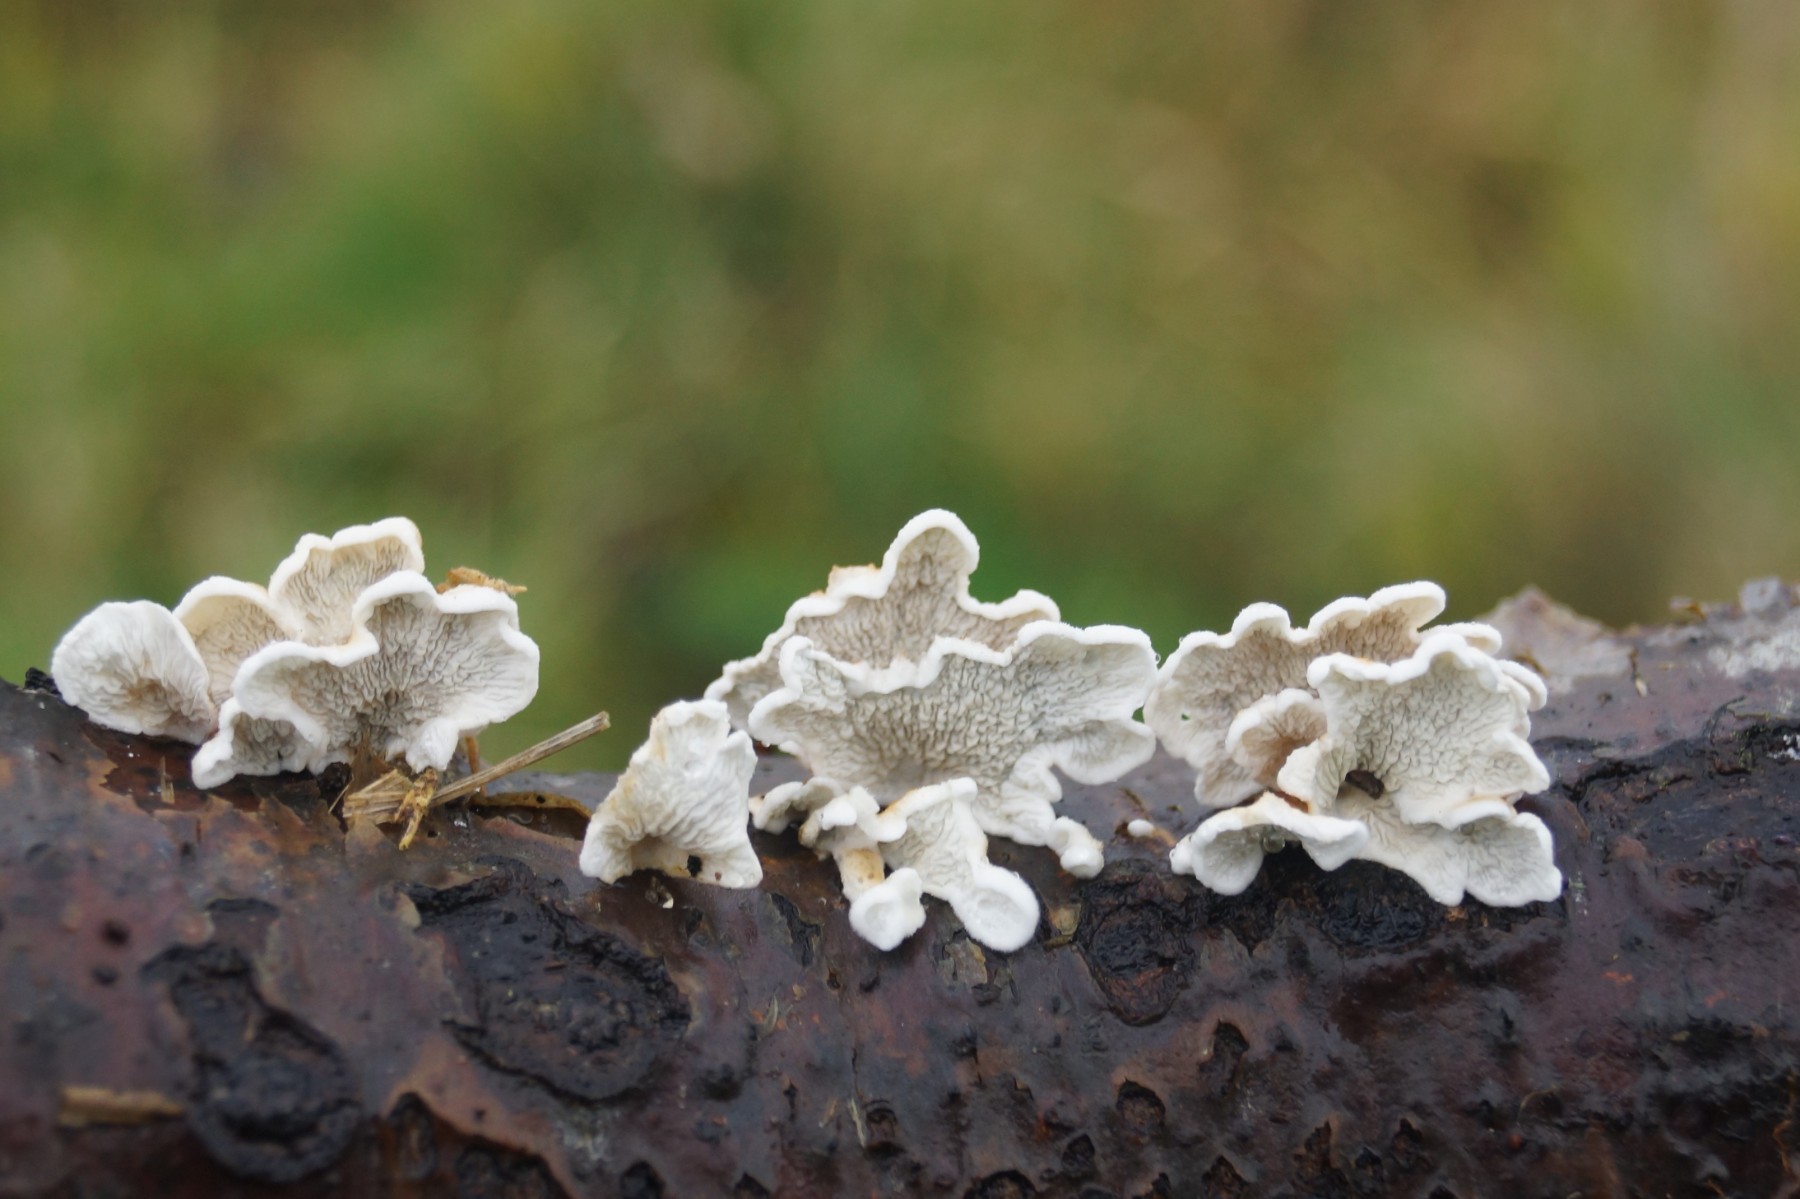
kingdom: Fungi
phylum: Basidiomycota
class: Agaricomycetes
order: Amylocorticiales
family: Amylocorticiaceae
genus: Plicaturopsis
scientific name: Plicaturopsis crispa
